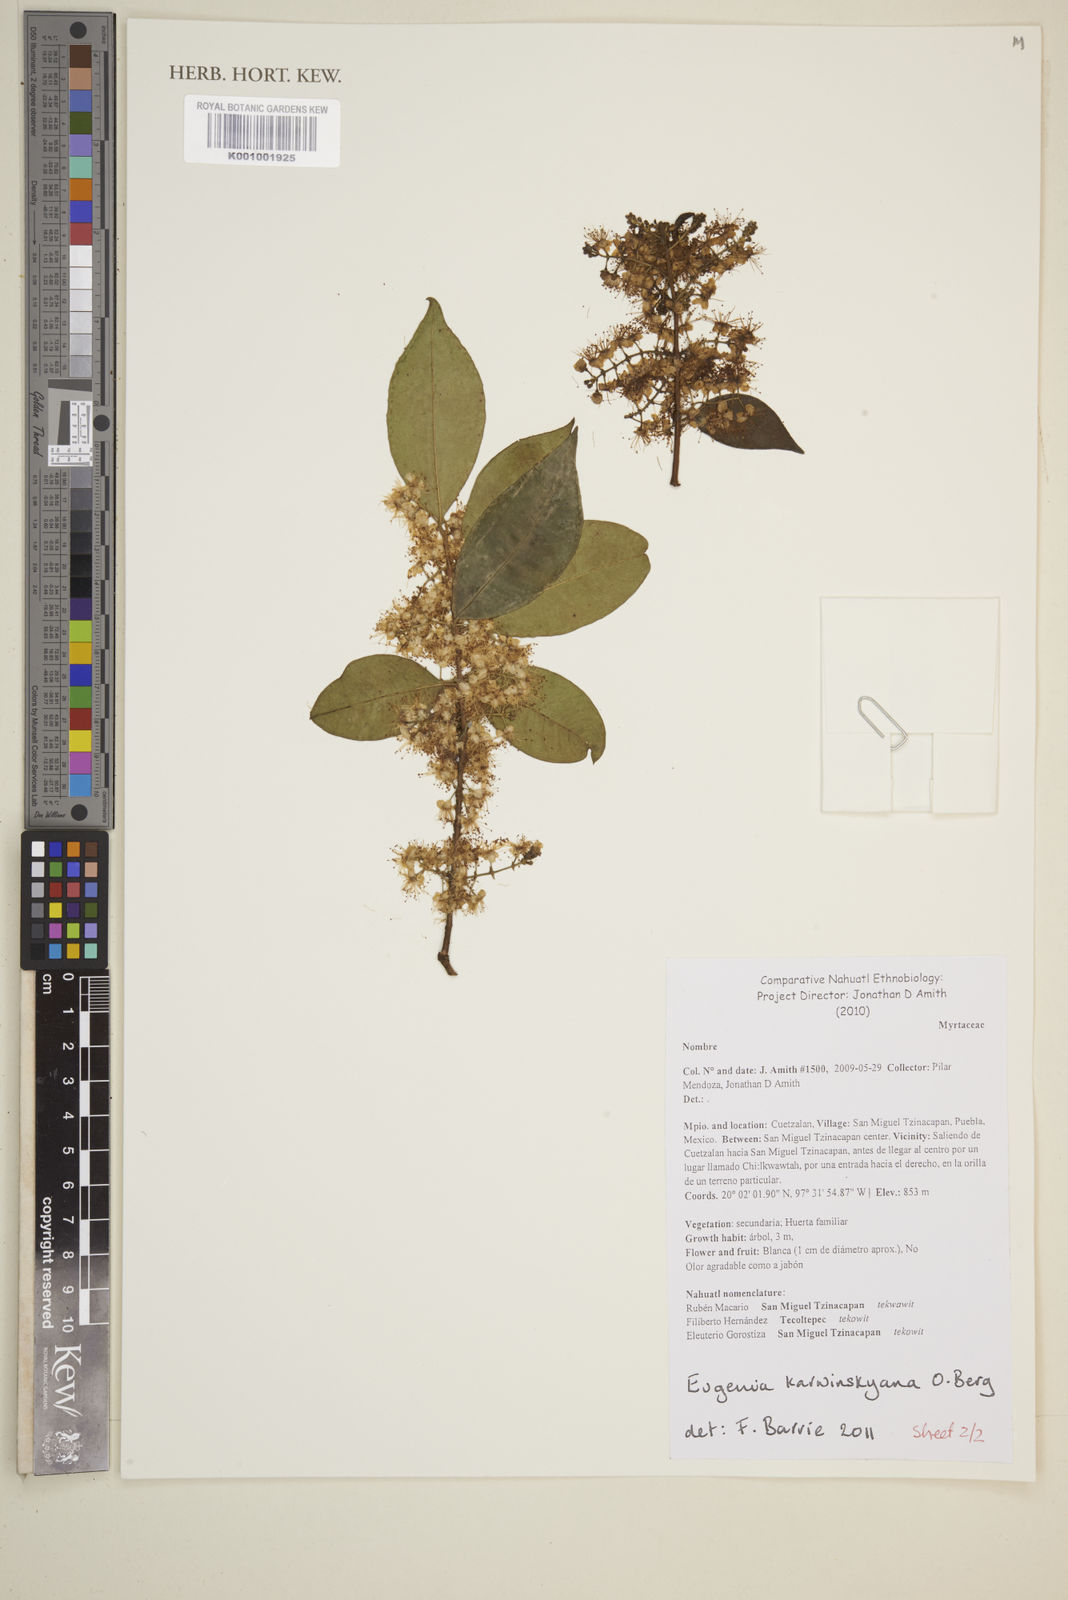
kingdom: Plantae
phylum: Tracheophyta
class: Magnoliopsida
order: Myrtales
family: Myrtaceae
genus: Eugenia
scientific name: Eugenia karwinskyana
